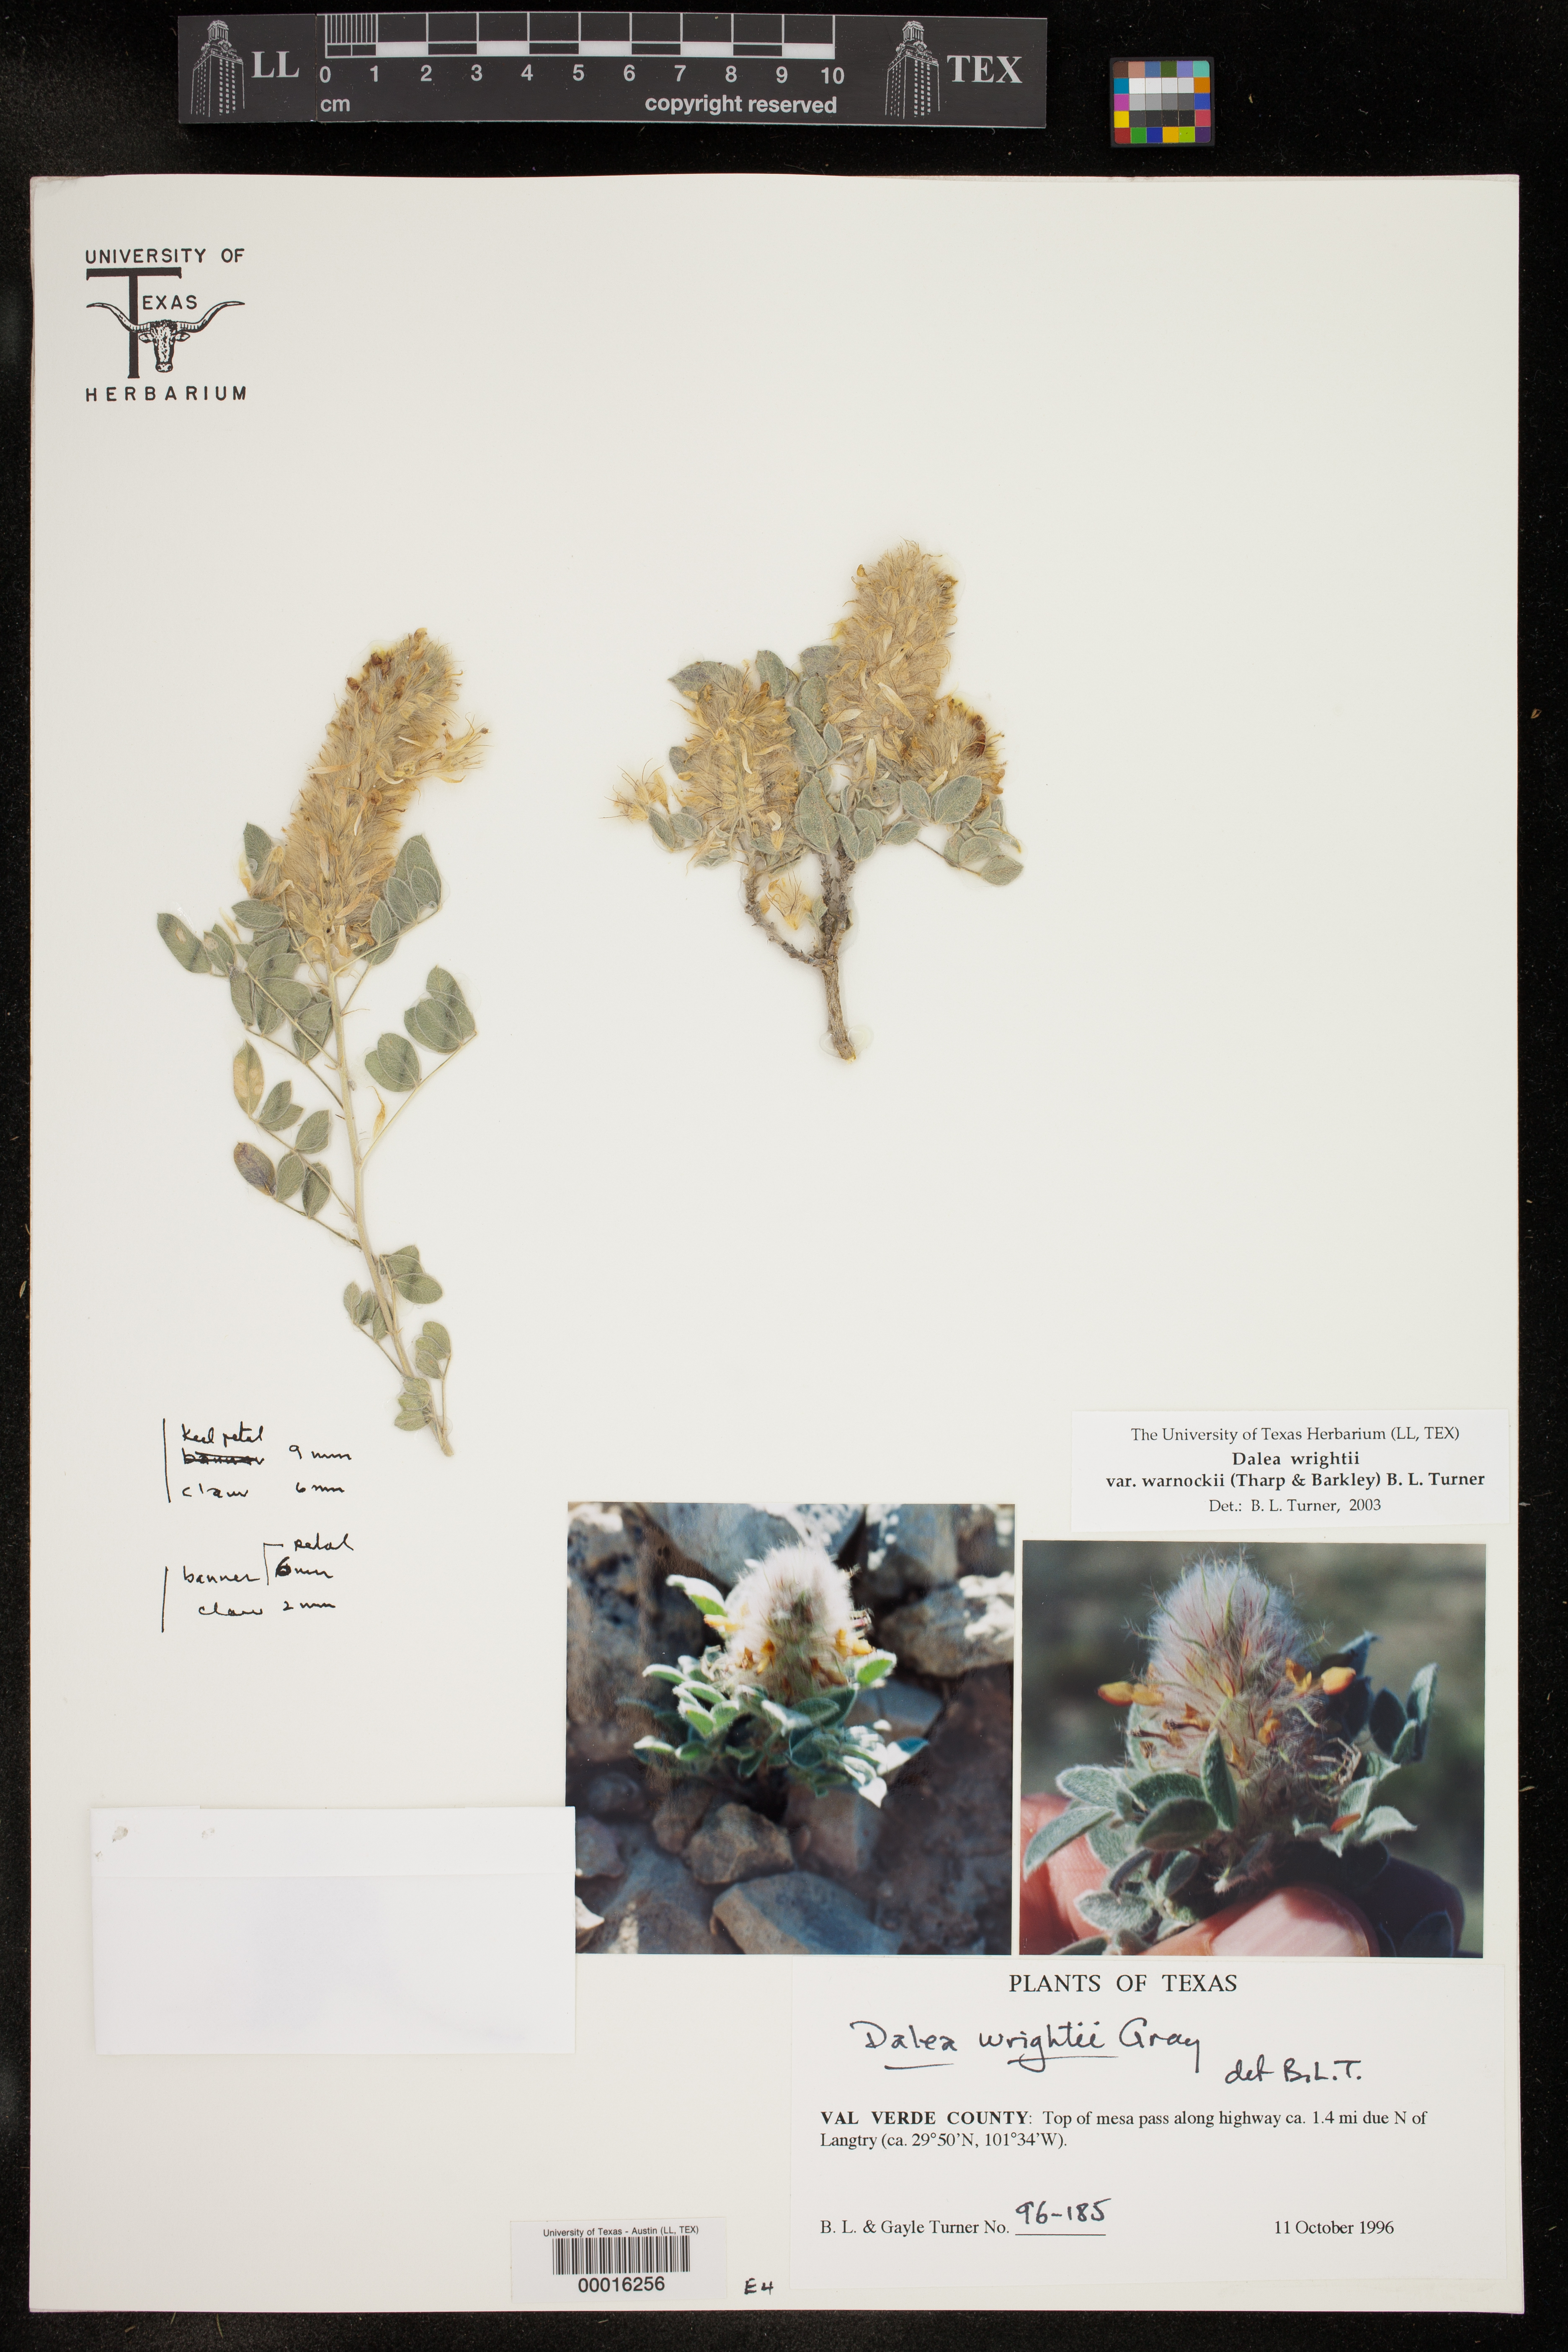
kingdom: Plantae
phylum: Tracheophyta
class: Magnoliopsida
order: Fabales
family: Fabaceae
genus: Dalea
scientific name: Dalea wrightii
